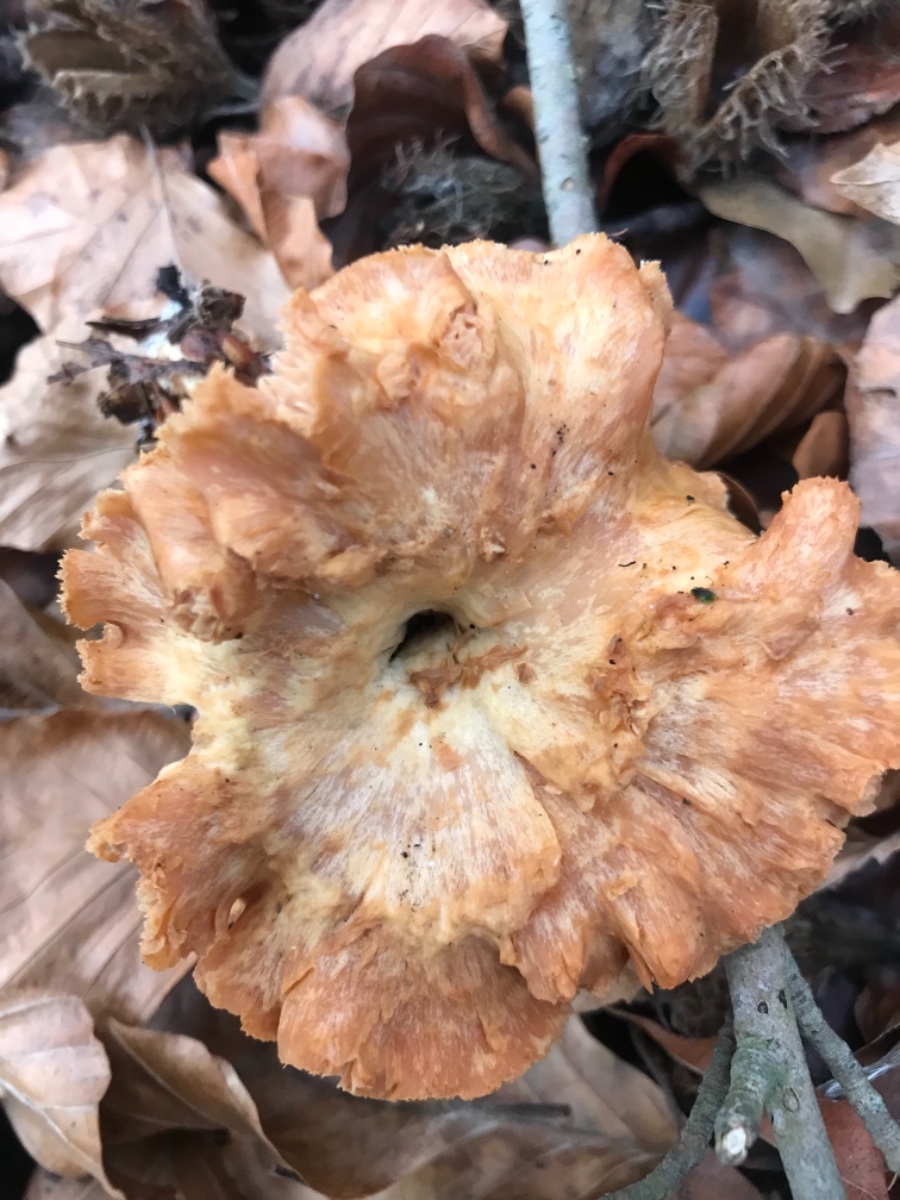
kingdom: Fungi
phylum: Basidiomycota
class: Agaricomycetes
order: Cantharellales
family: Hydnaceae
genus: Hydnum
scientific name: Hydnum
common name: pigsvamp
